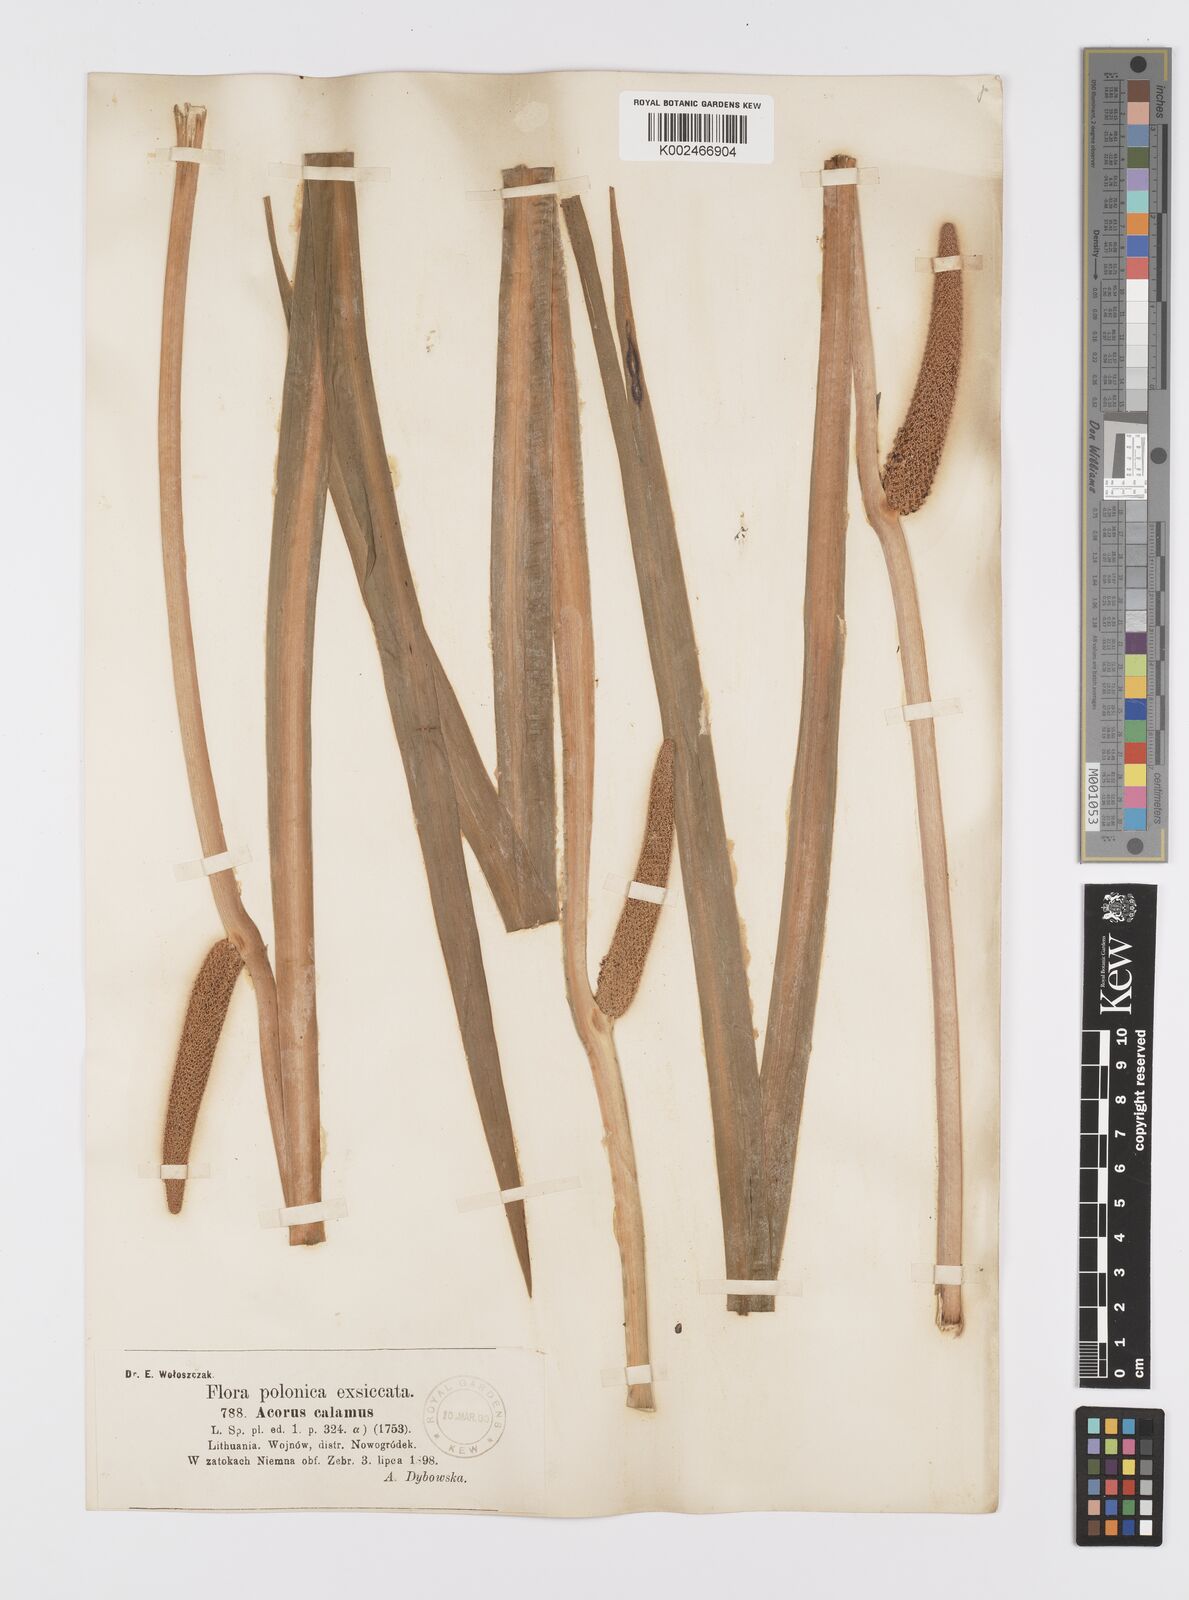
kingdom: Plantae
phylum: Tracheophyta
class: Liliopsida
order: Acorales
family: Acoraceae
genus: Acorus
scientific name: Acorus calamus
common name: Sweet-flag
